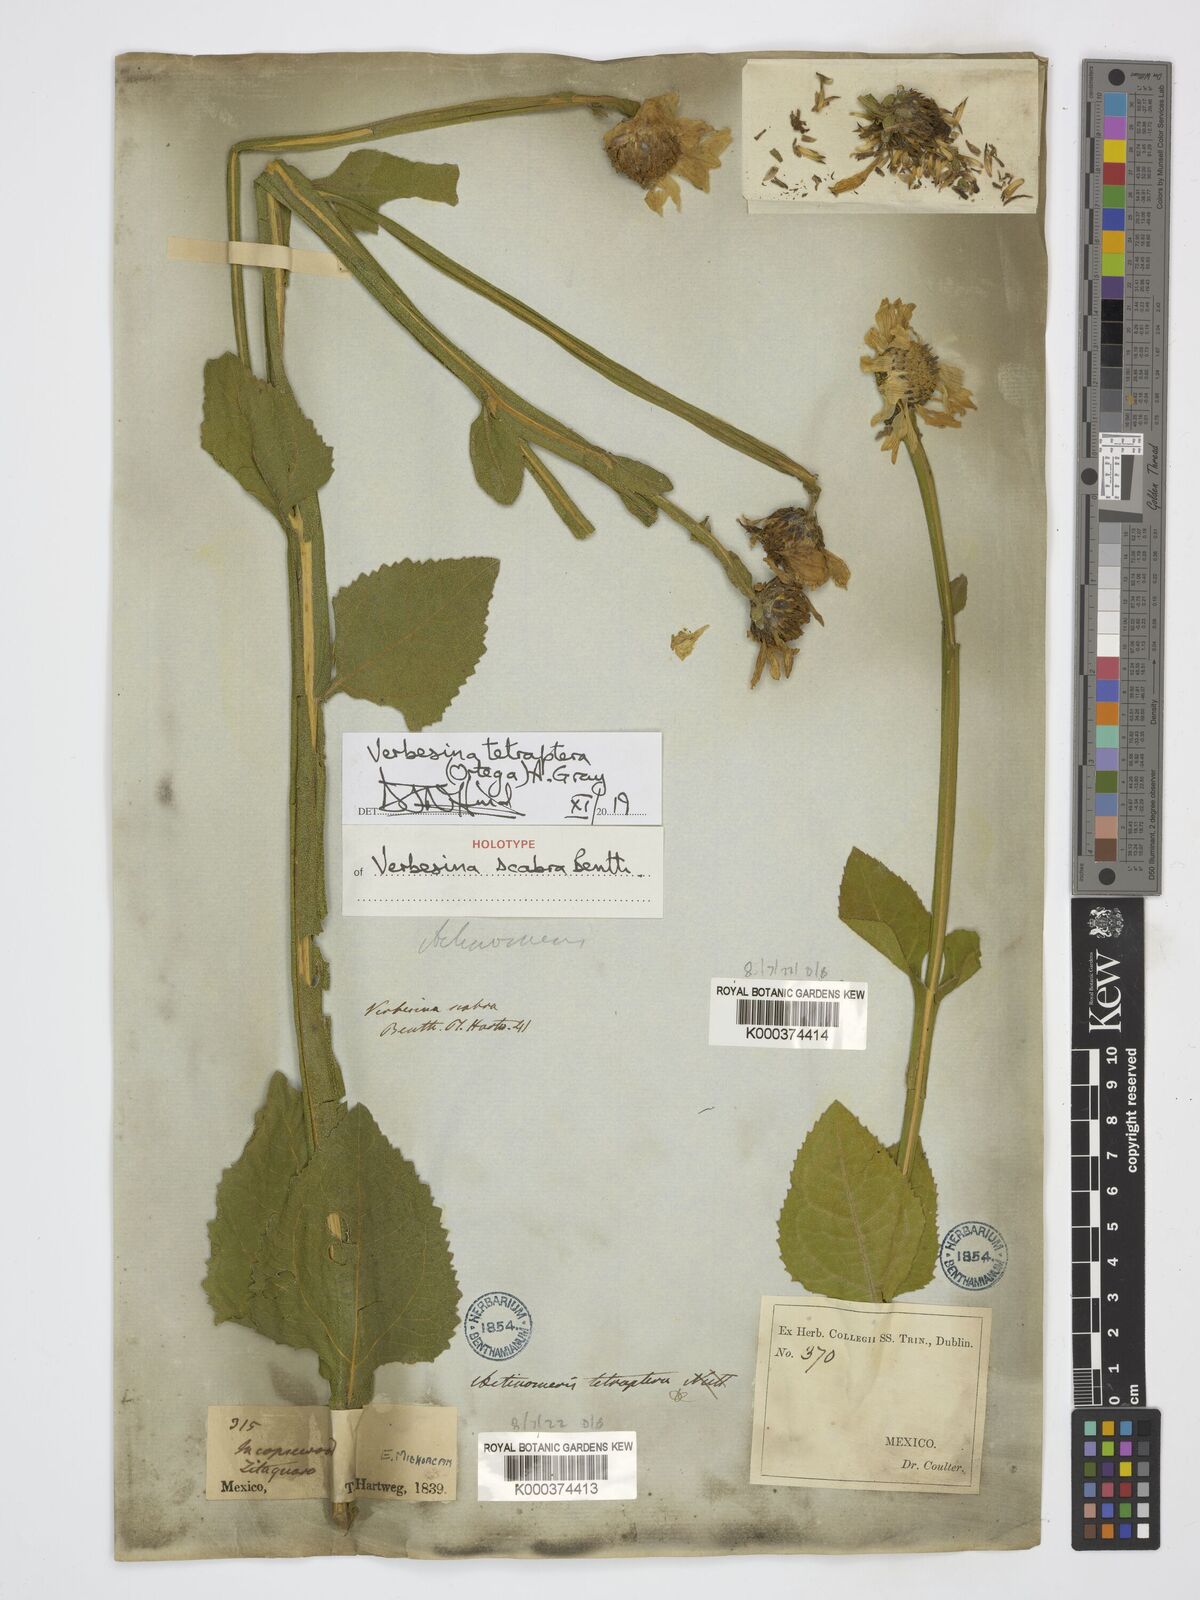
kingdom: Plantae
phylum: Tracheophyta
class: Magnoliopsida
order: Asterales
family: Asteraceae
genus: Verbesina
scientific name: Verbesina tetraptera
